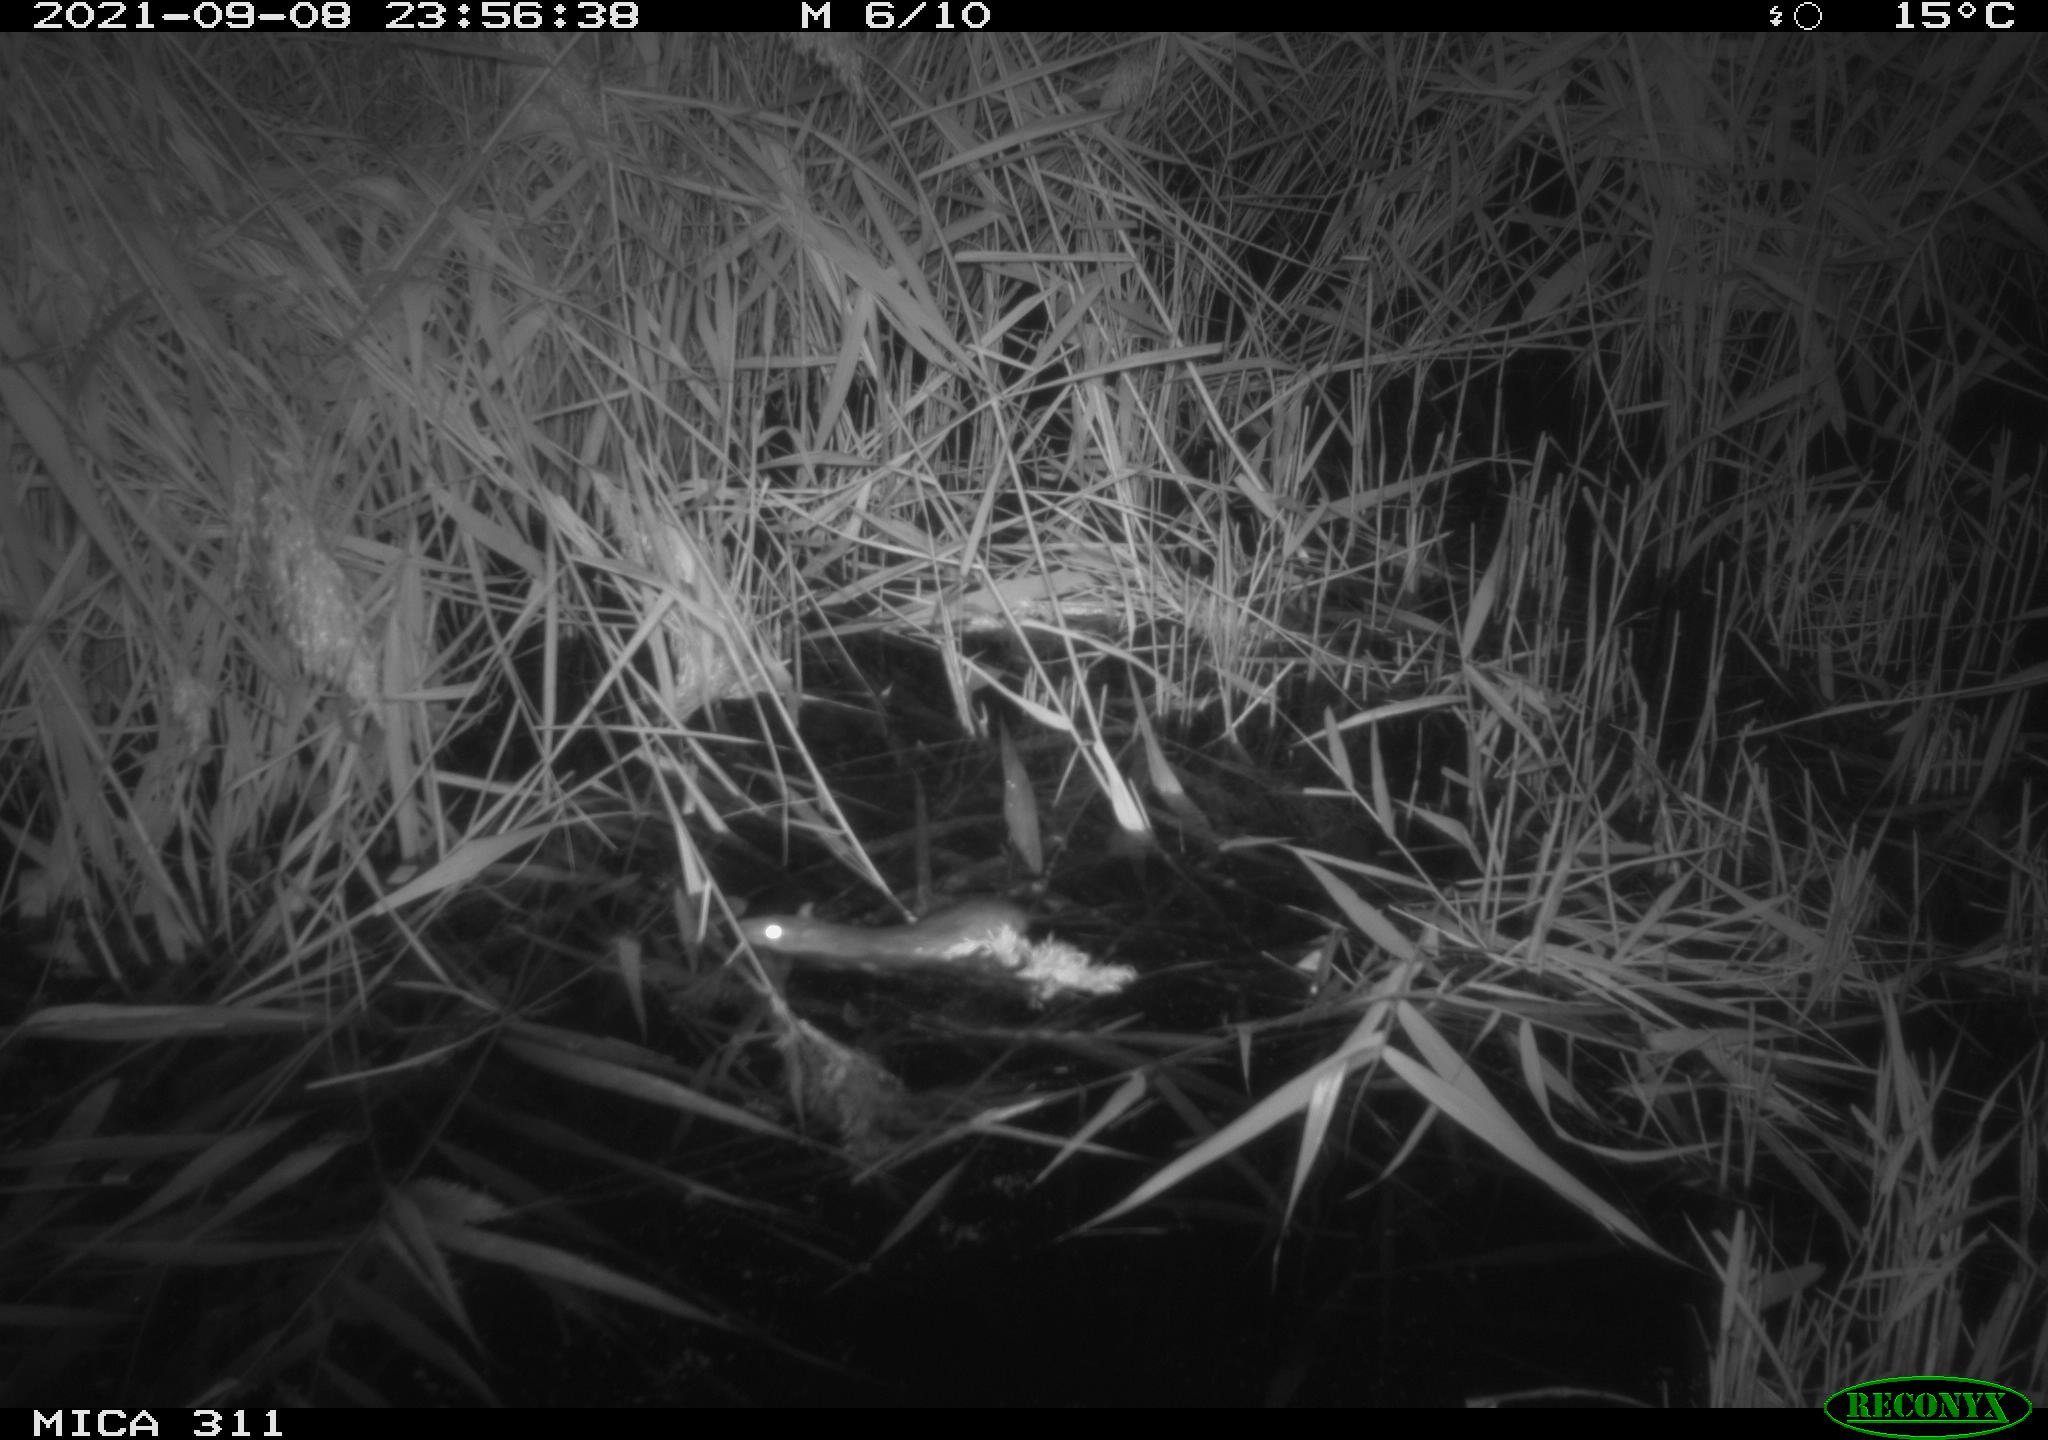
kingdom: Animalia
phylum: Chordata
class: Mammalia
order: Rodentia
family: Muridae
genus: Rattus
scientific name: Rattus norvegicus
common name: Brown rat
